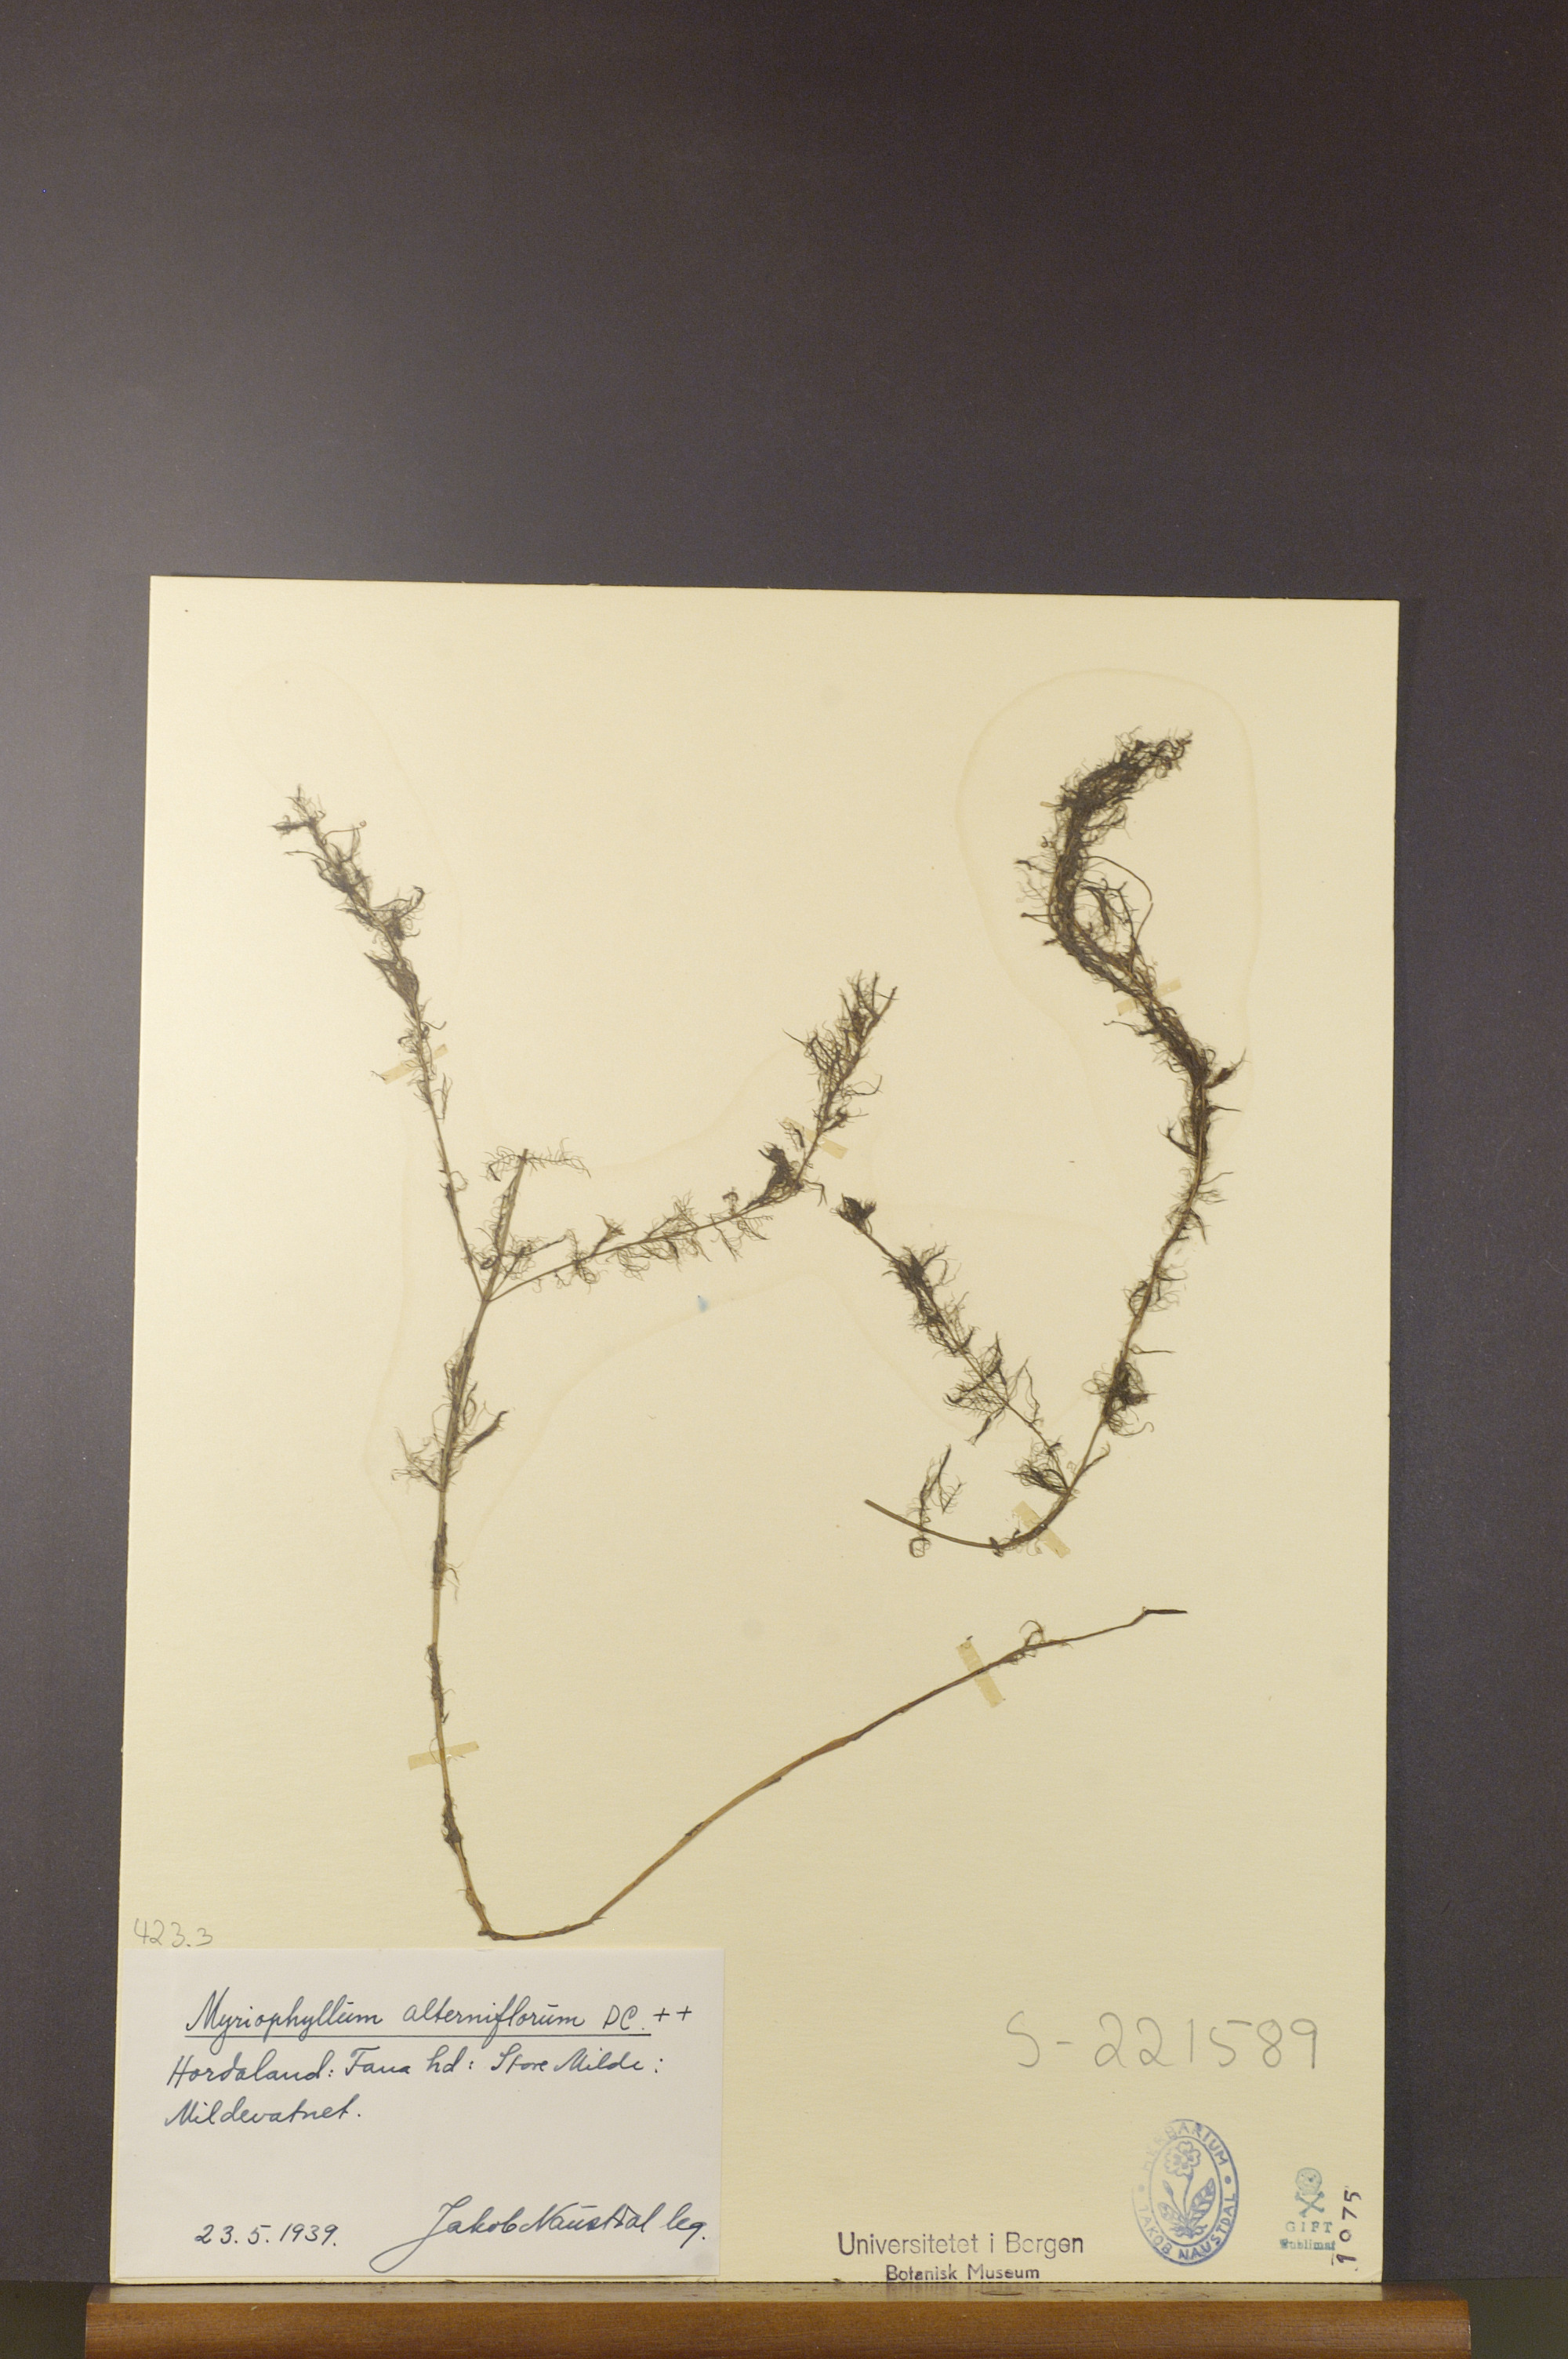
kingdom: Plantae
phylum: Tracheophyta
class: Magnoliopsida
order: Saxifragales
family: Haloragaceae
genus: Myriophyllum
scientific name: Myriophyllum alterniflorum
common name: Alternate water-milfoil
